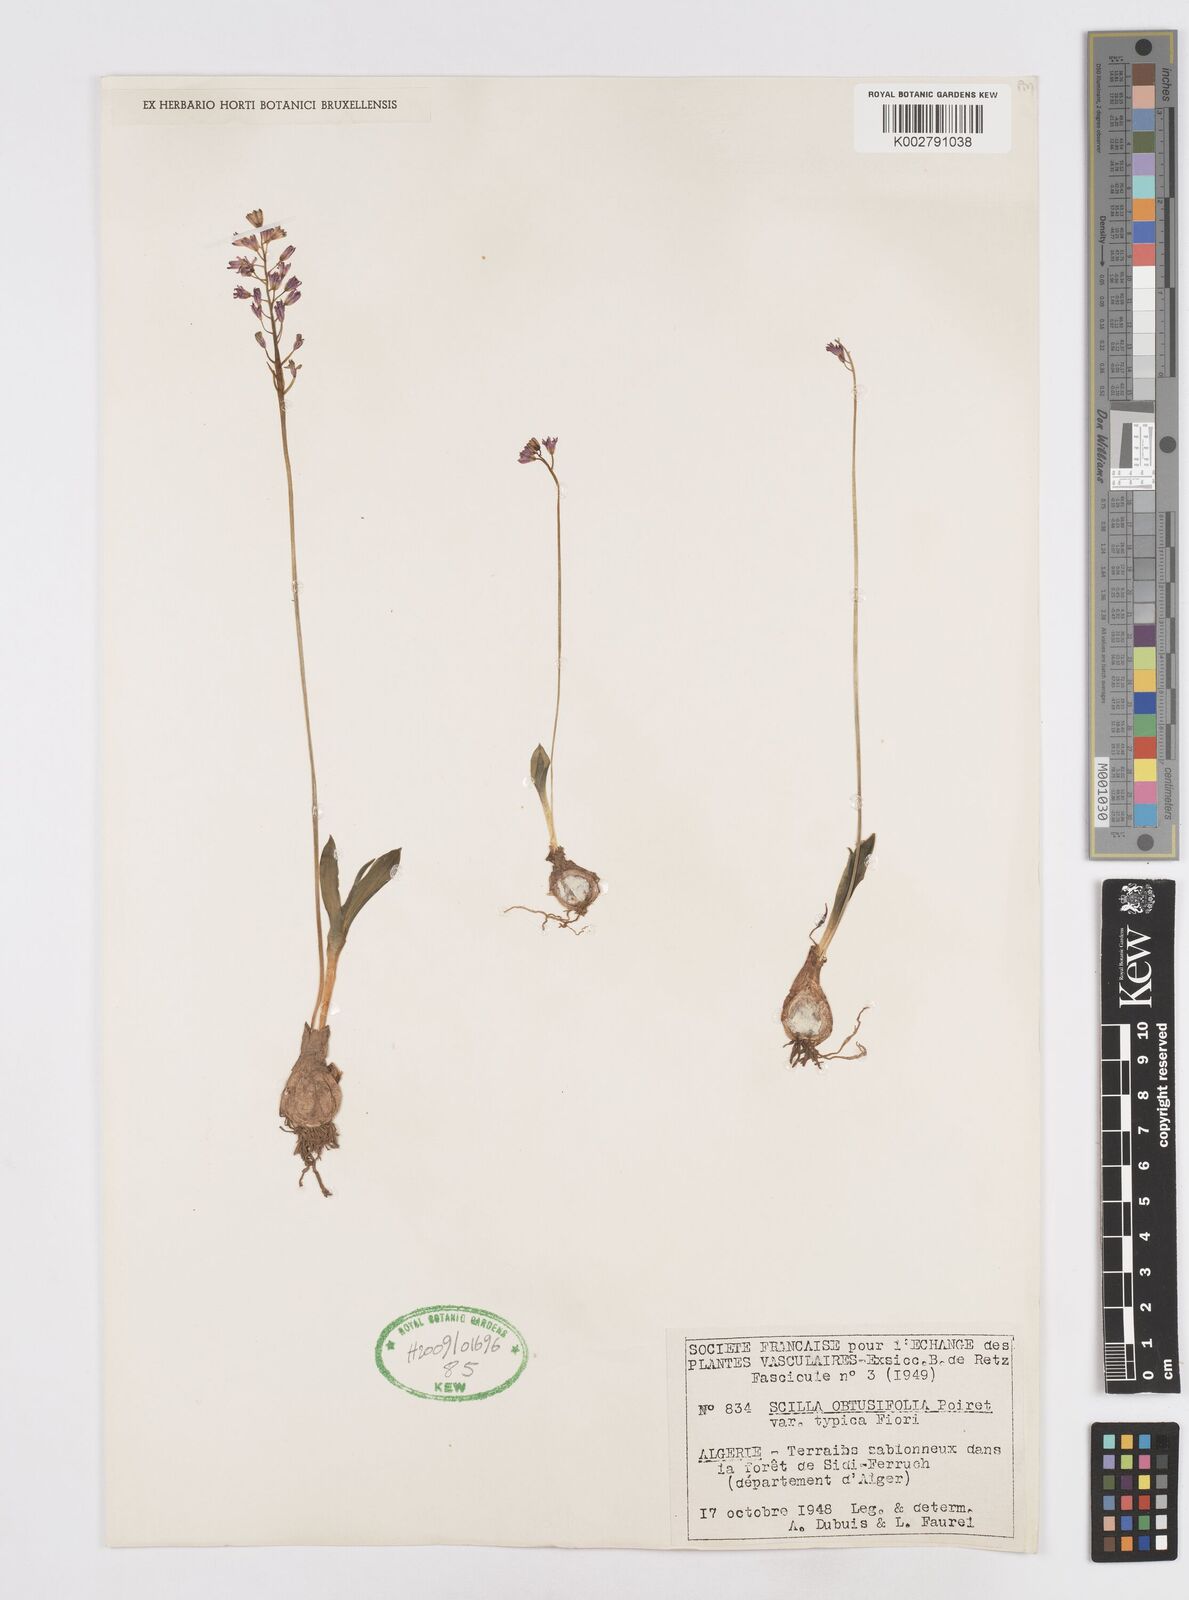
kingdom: Plantae
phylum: Tracheophyta
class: Liliopsida
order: Asparagales
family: Asparagaceae
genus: Prospero
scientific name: Prospero obtusifolium
